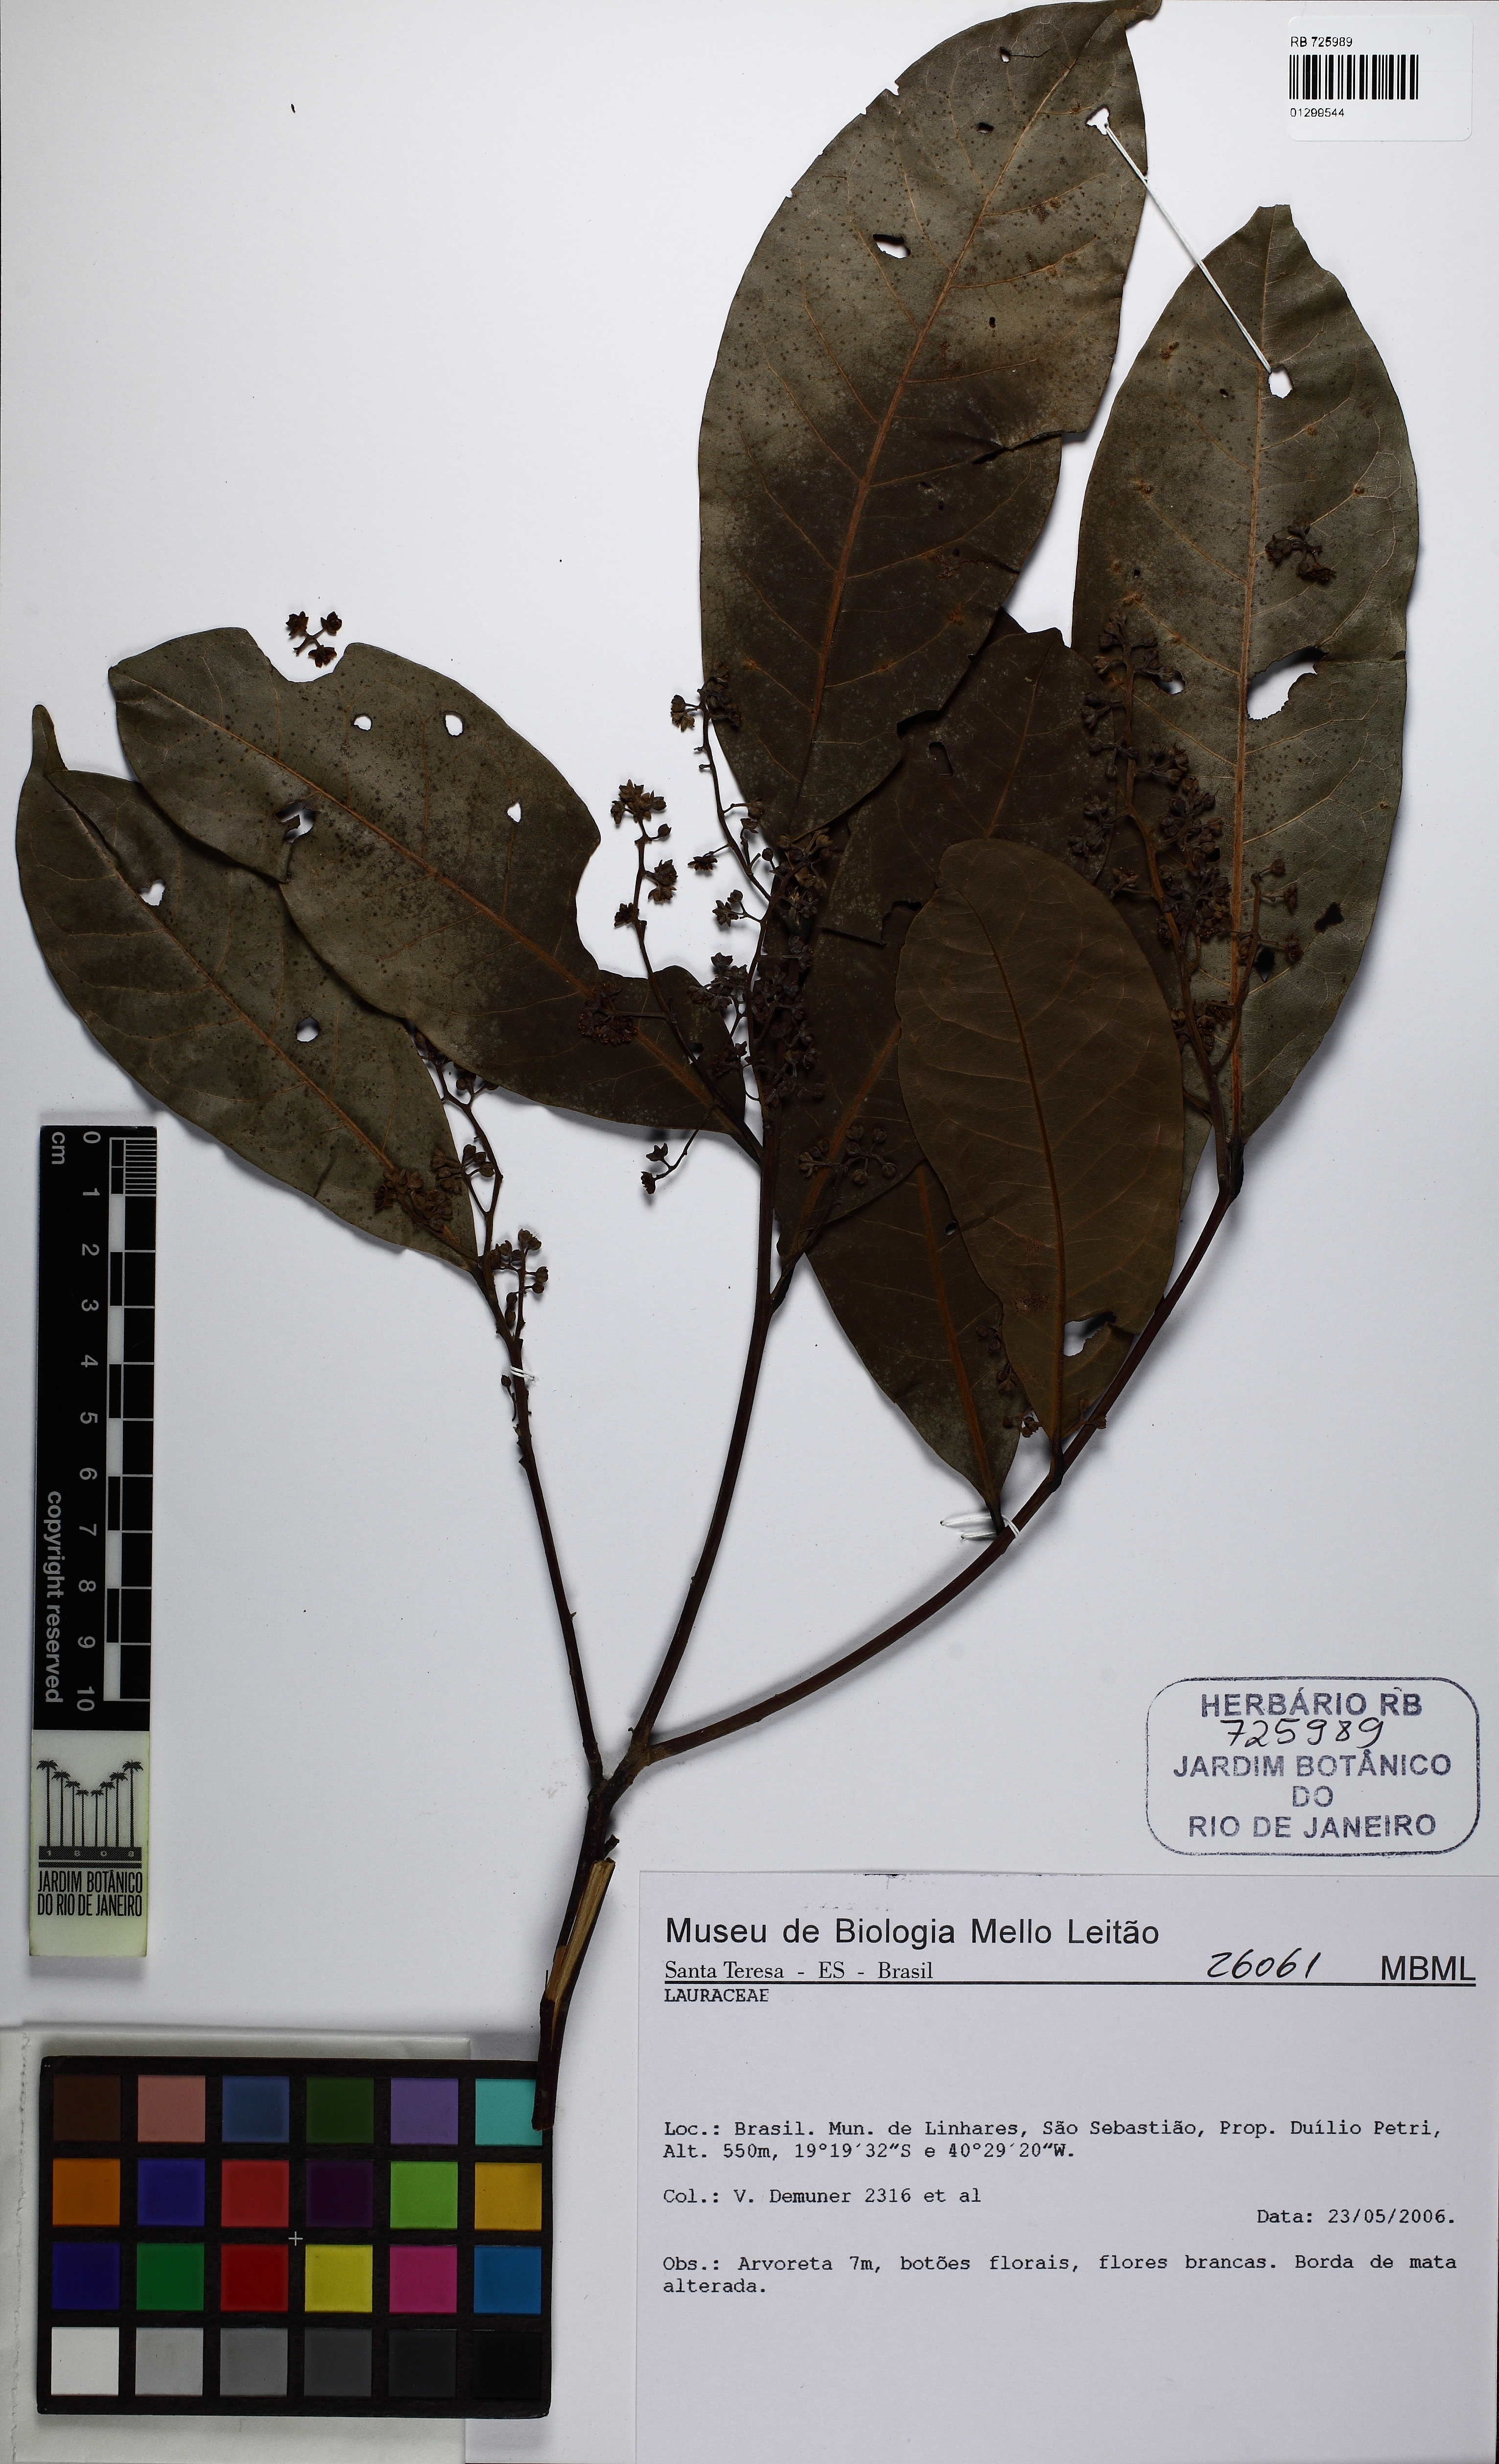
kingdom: Plantae
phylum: Tracheophyta
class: Magnoliopsida
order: Laurales
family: Lauraceae
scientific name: Lauraceae
